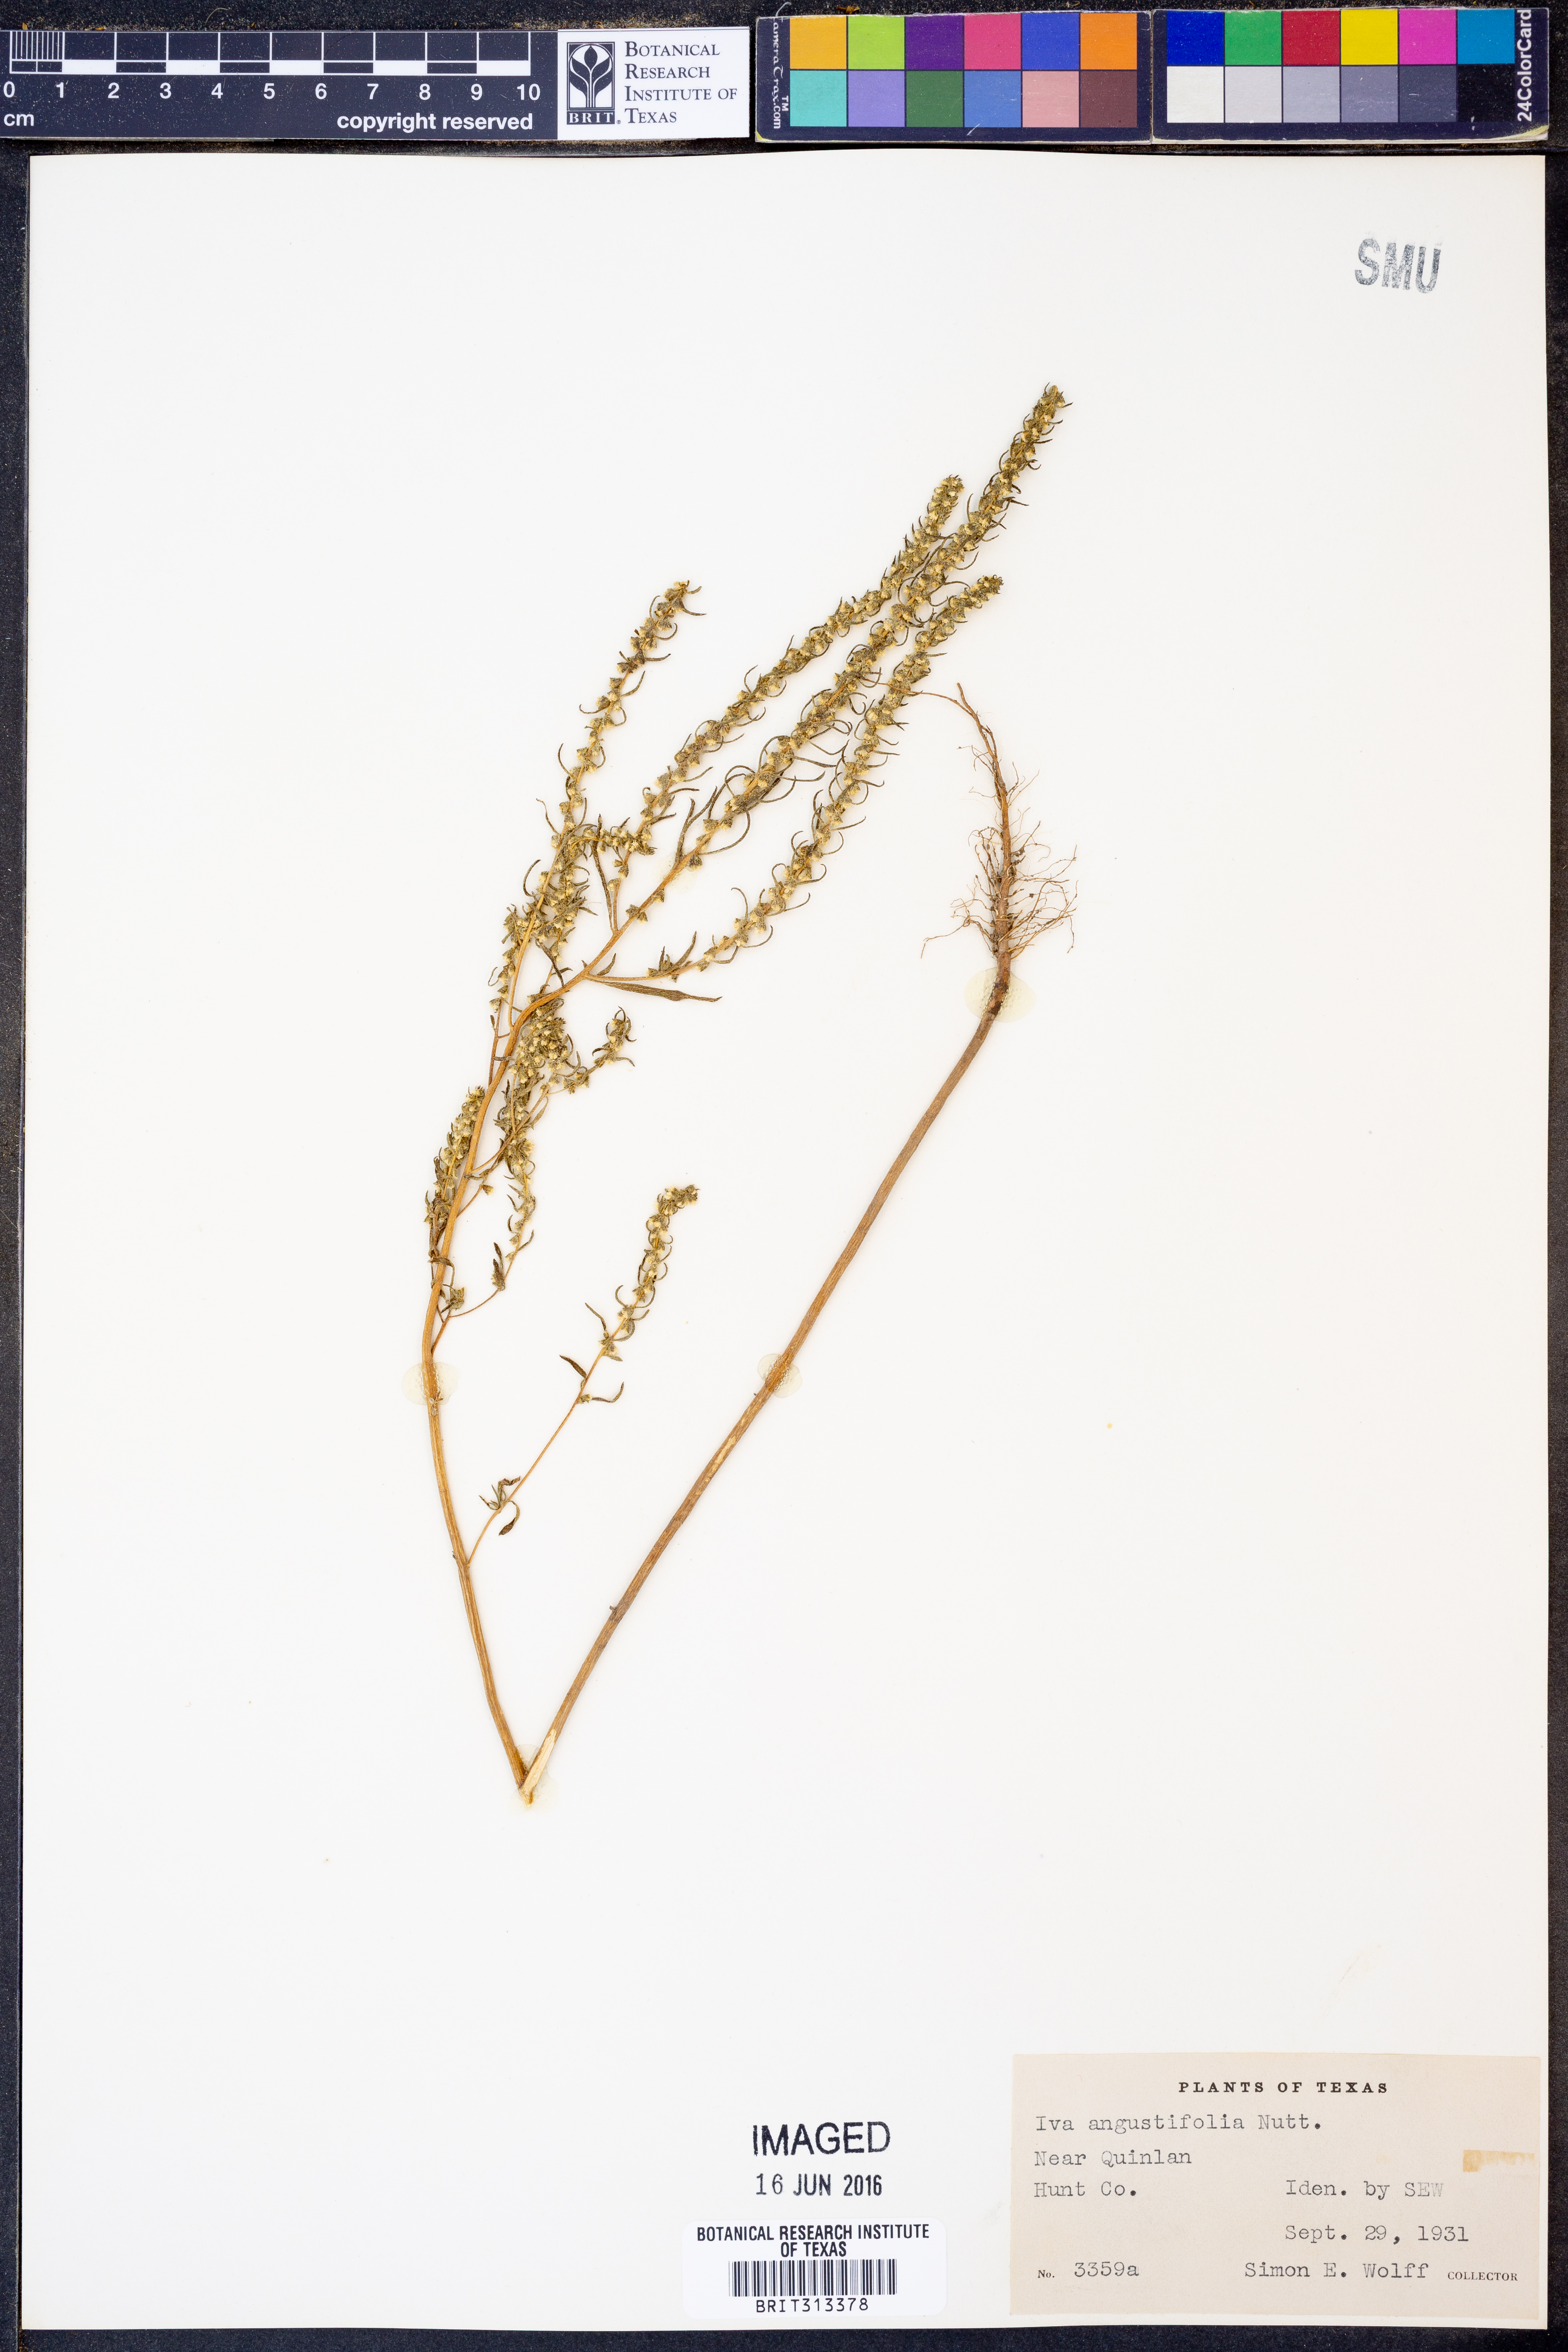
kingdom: Plantae
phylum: Tracheophyta
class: Magnoliopsida
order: Asterales
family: Asteraceae
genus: Iva
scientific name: Iva asperifolia
